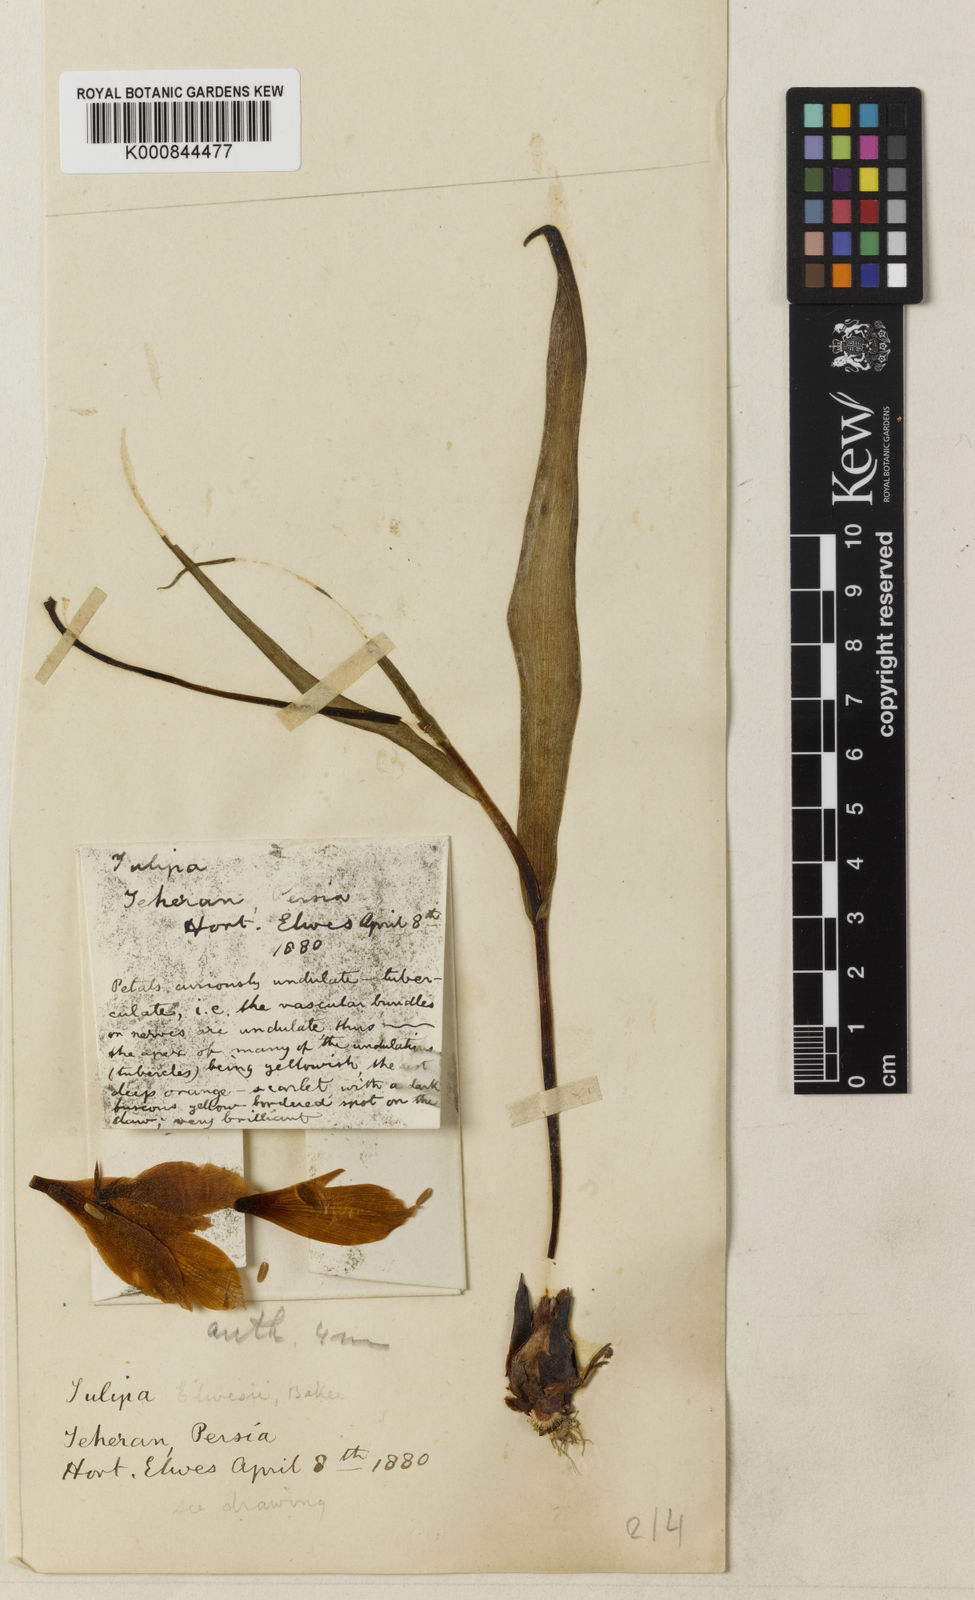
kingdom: Plantae
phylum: Tracheophyta
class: Liliopsida
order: Liliales
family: Liliaceae
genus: Tulipa
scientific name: Tulipa sylvestris
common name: Wild tulip
